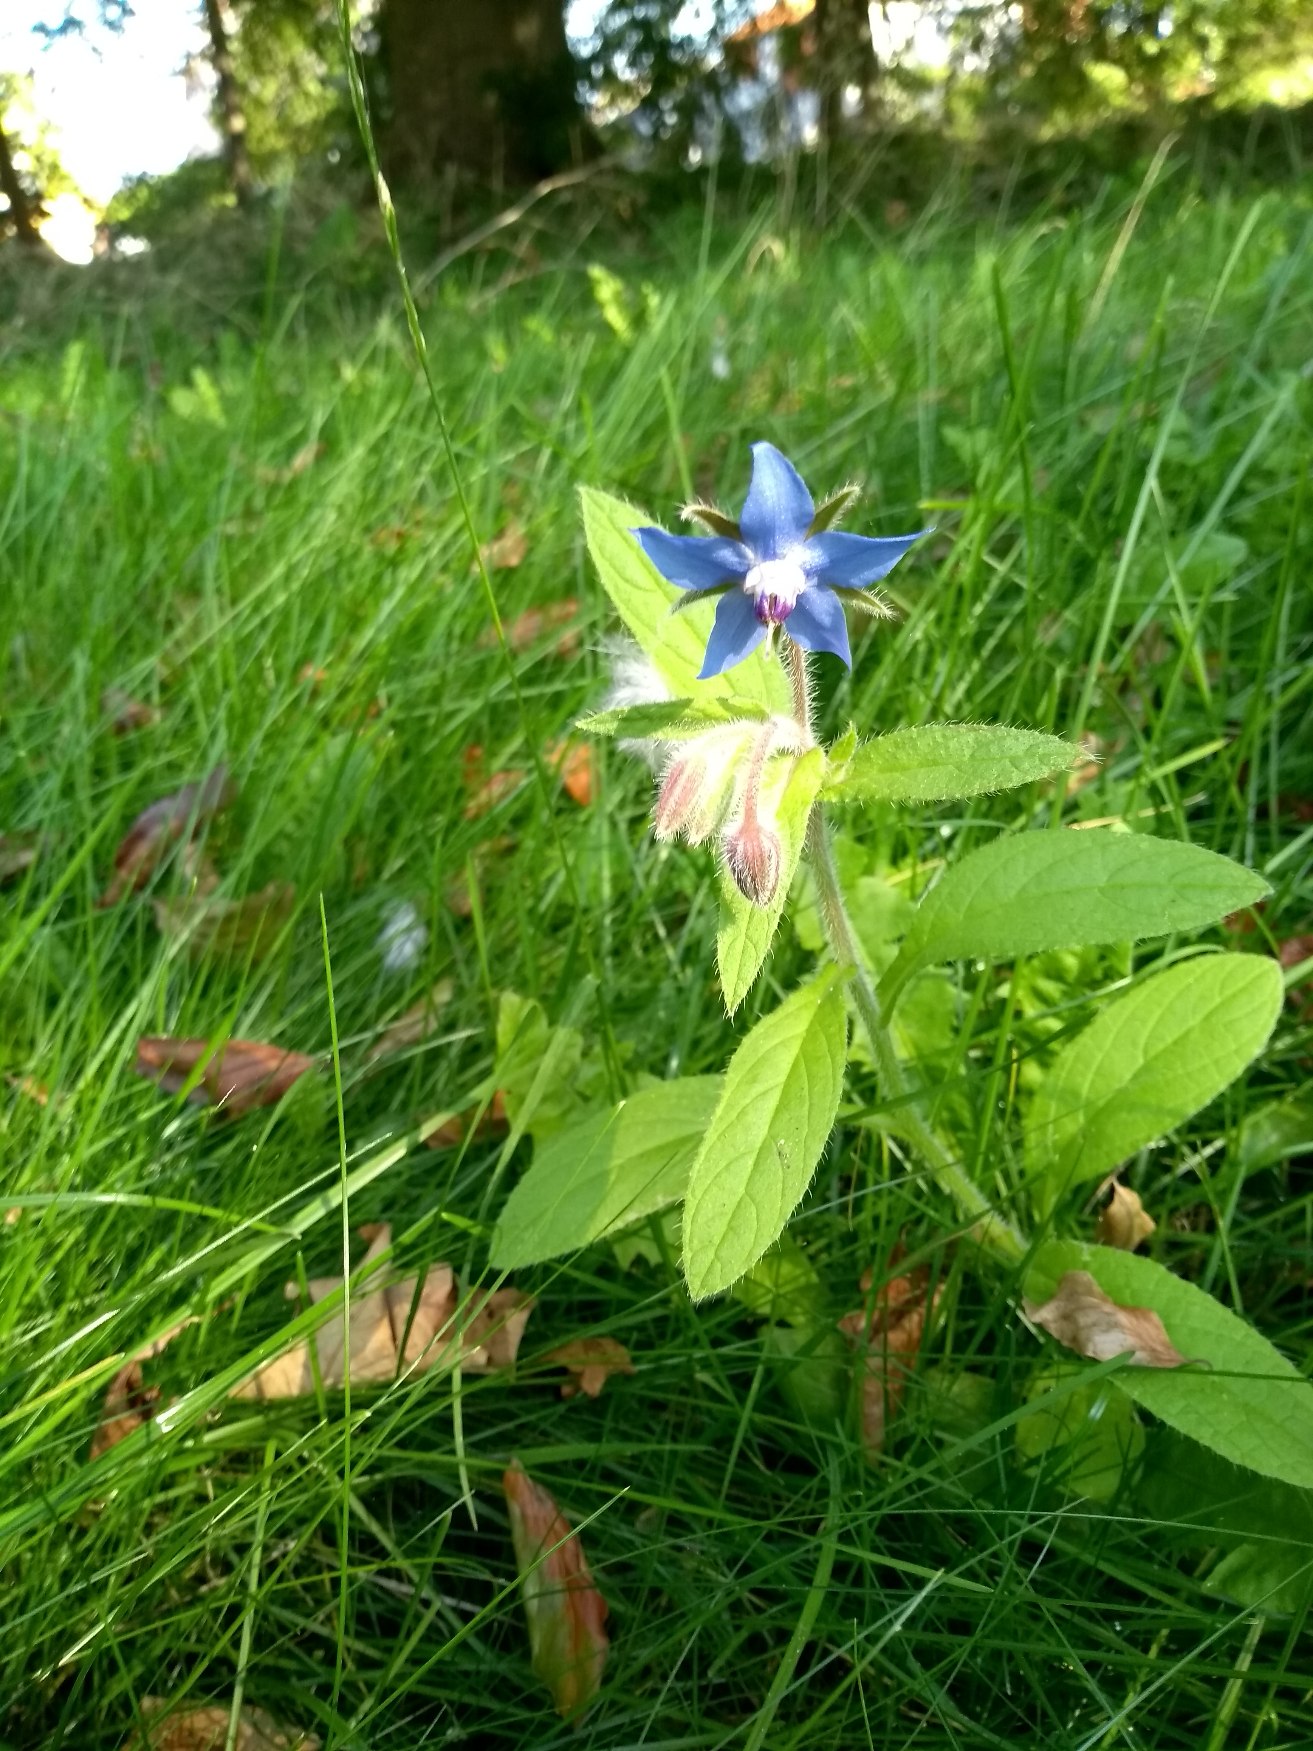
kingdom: Plantae
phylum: Tracheophyta
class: Magnoliopsida
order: Boraginales
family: Boraginaceae
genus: Borago
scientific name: Borago officinalis
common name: Hjulkrone
